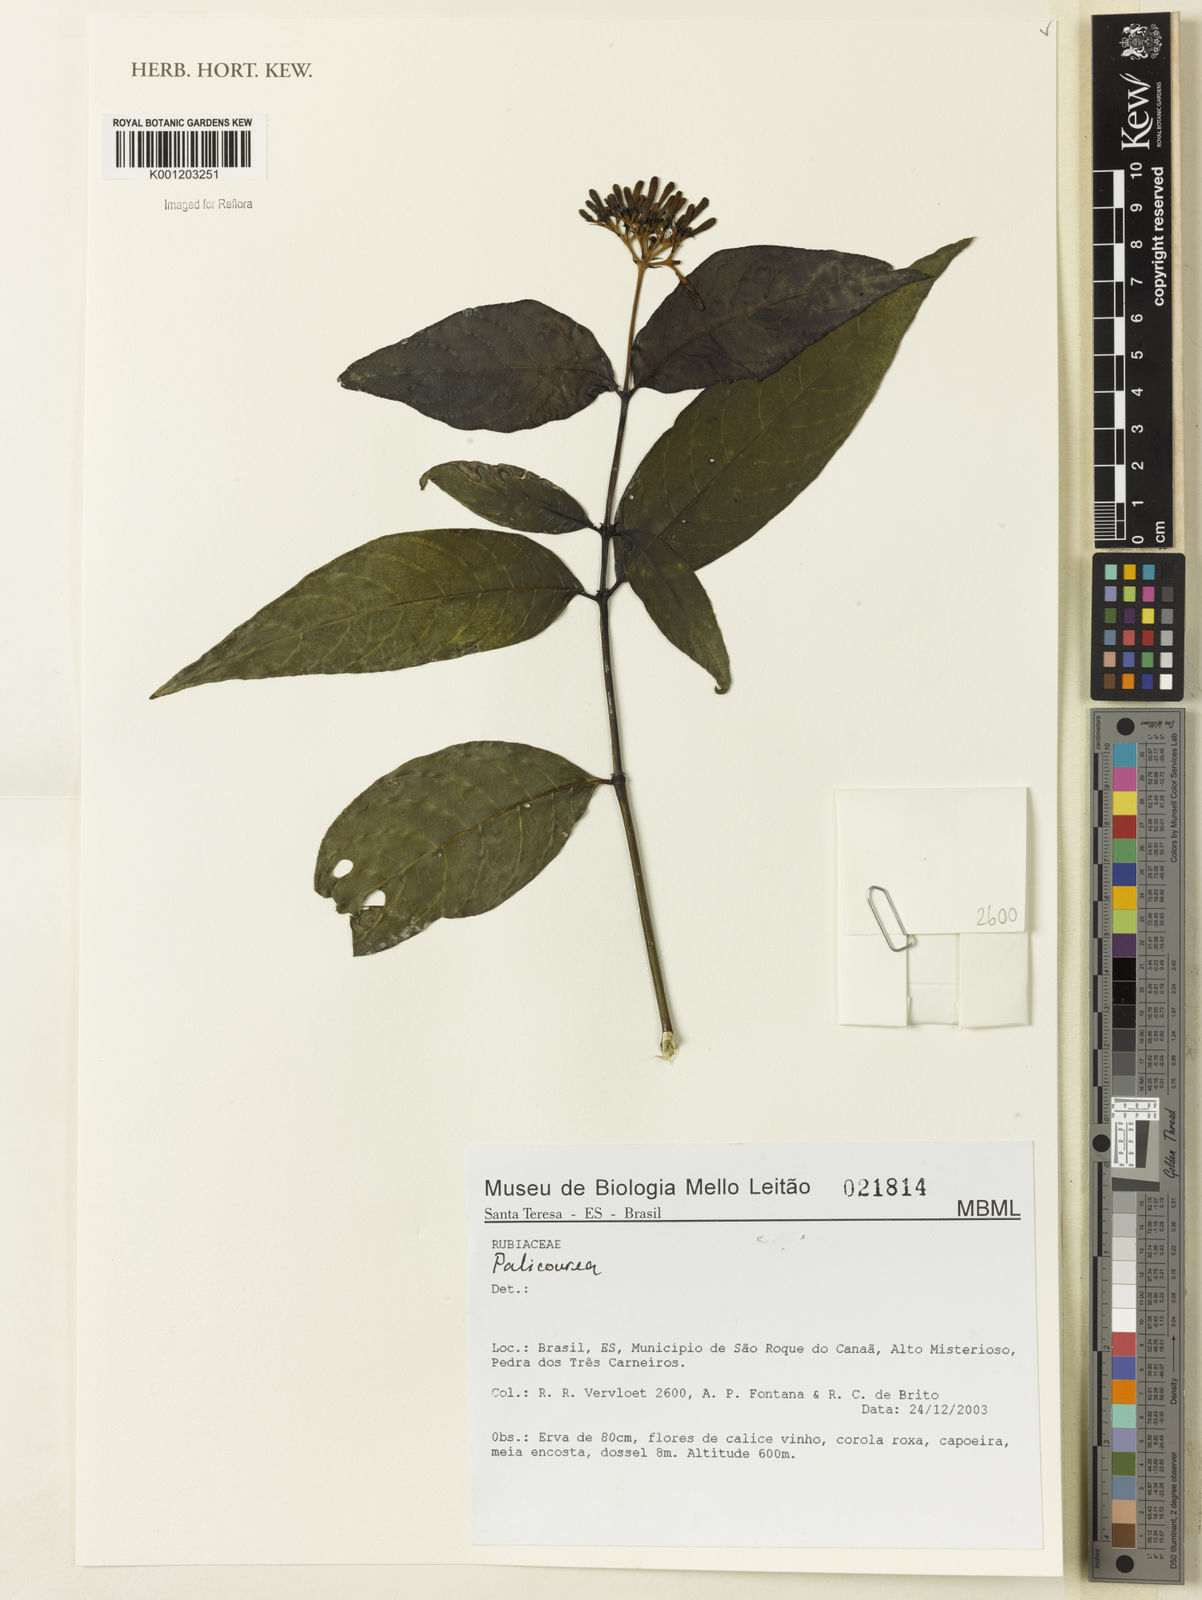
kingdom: Plantae
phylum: Tracheophyta
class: Magnoliopsida
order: Gentianales
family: Rubiaceae
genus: Palicourea
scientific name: Palicourea
